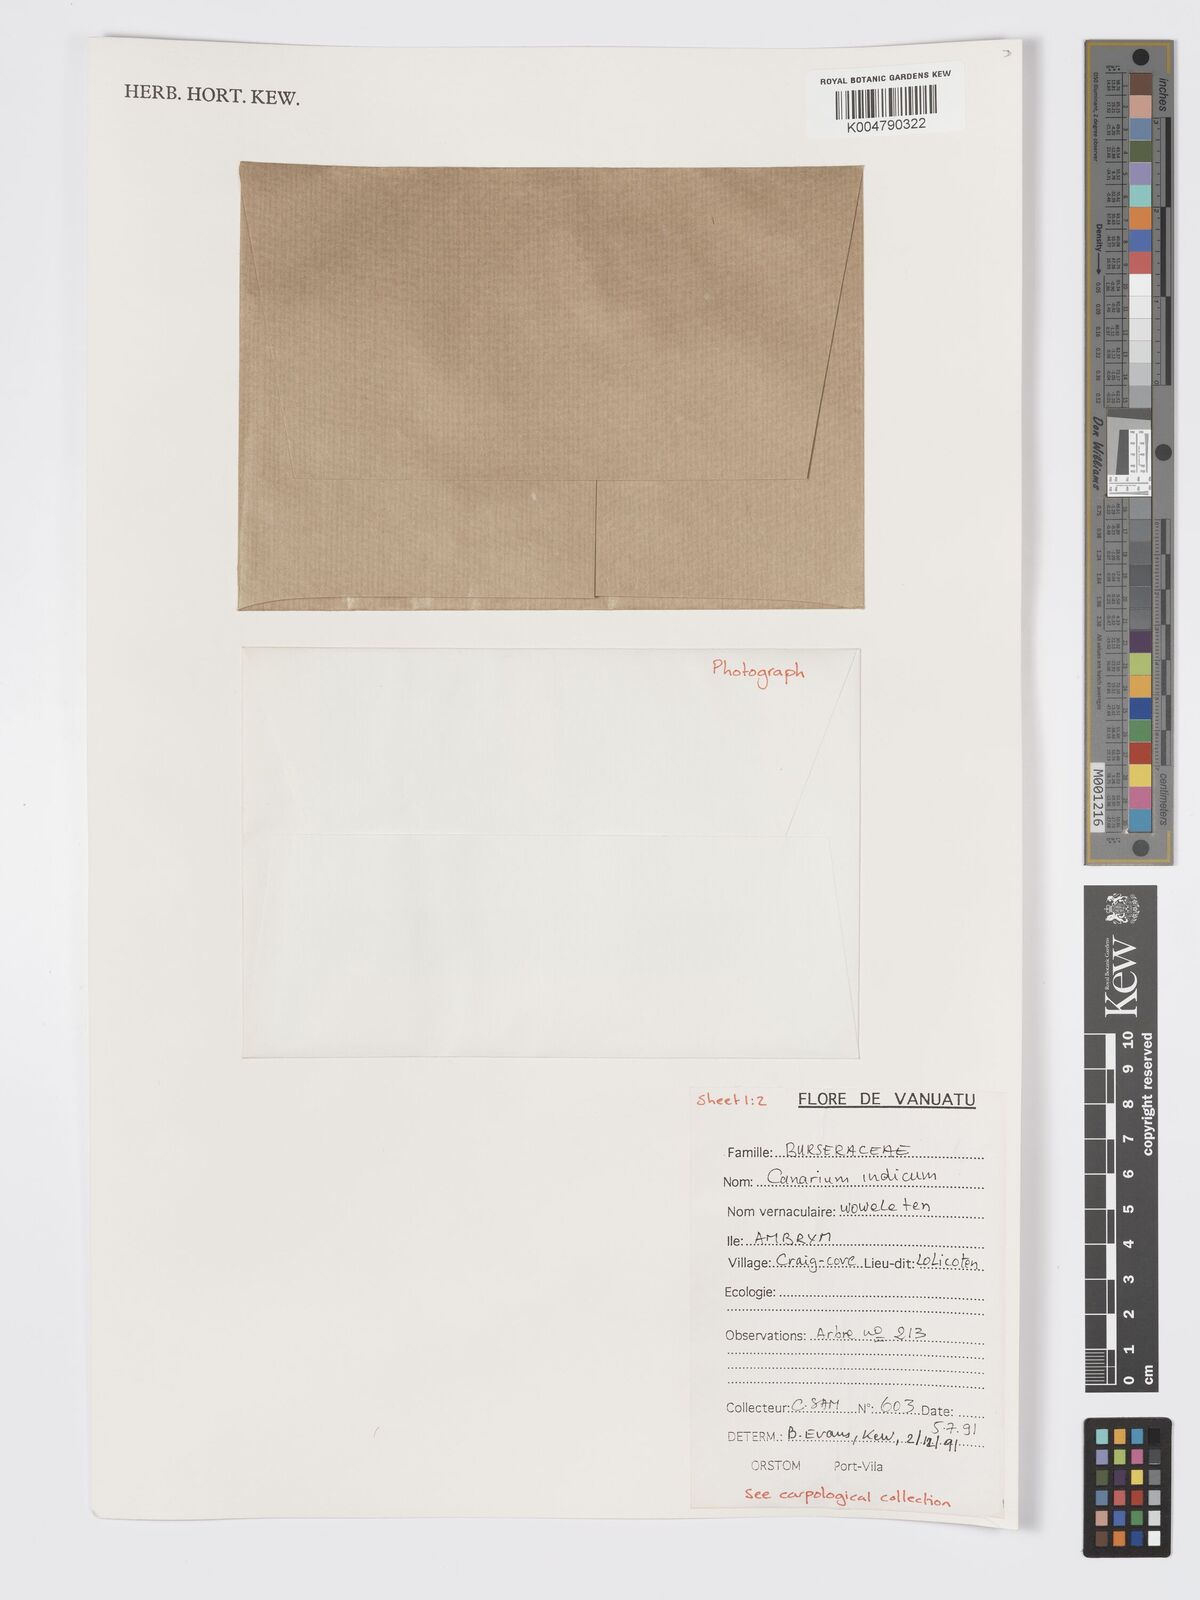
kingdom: Plantae
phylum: Tracheophyta
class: Magnoliopsida
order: Sapindales
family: Burseraceae
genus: Canarium
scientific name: Canarium indicum
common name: Canarium-nut
